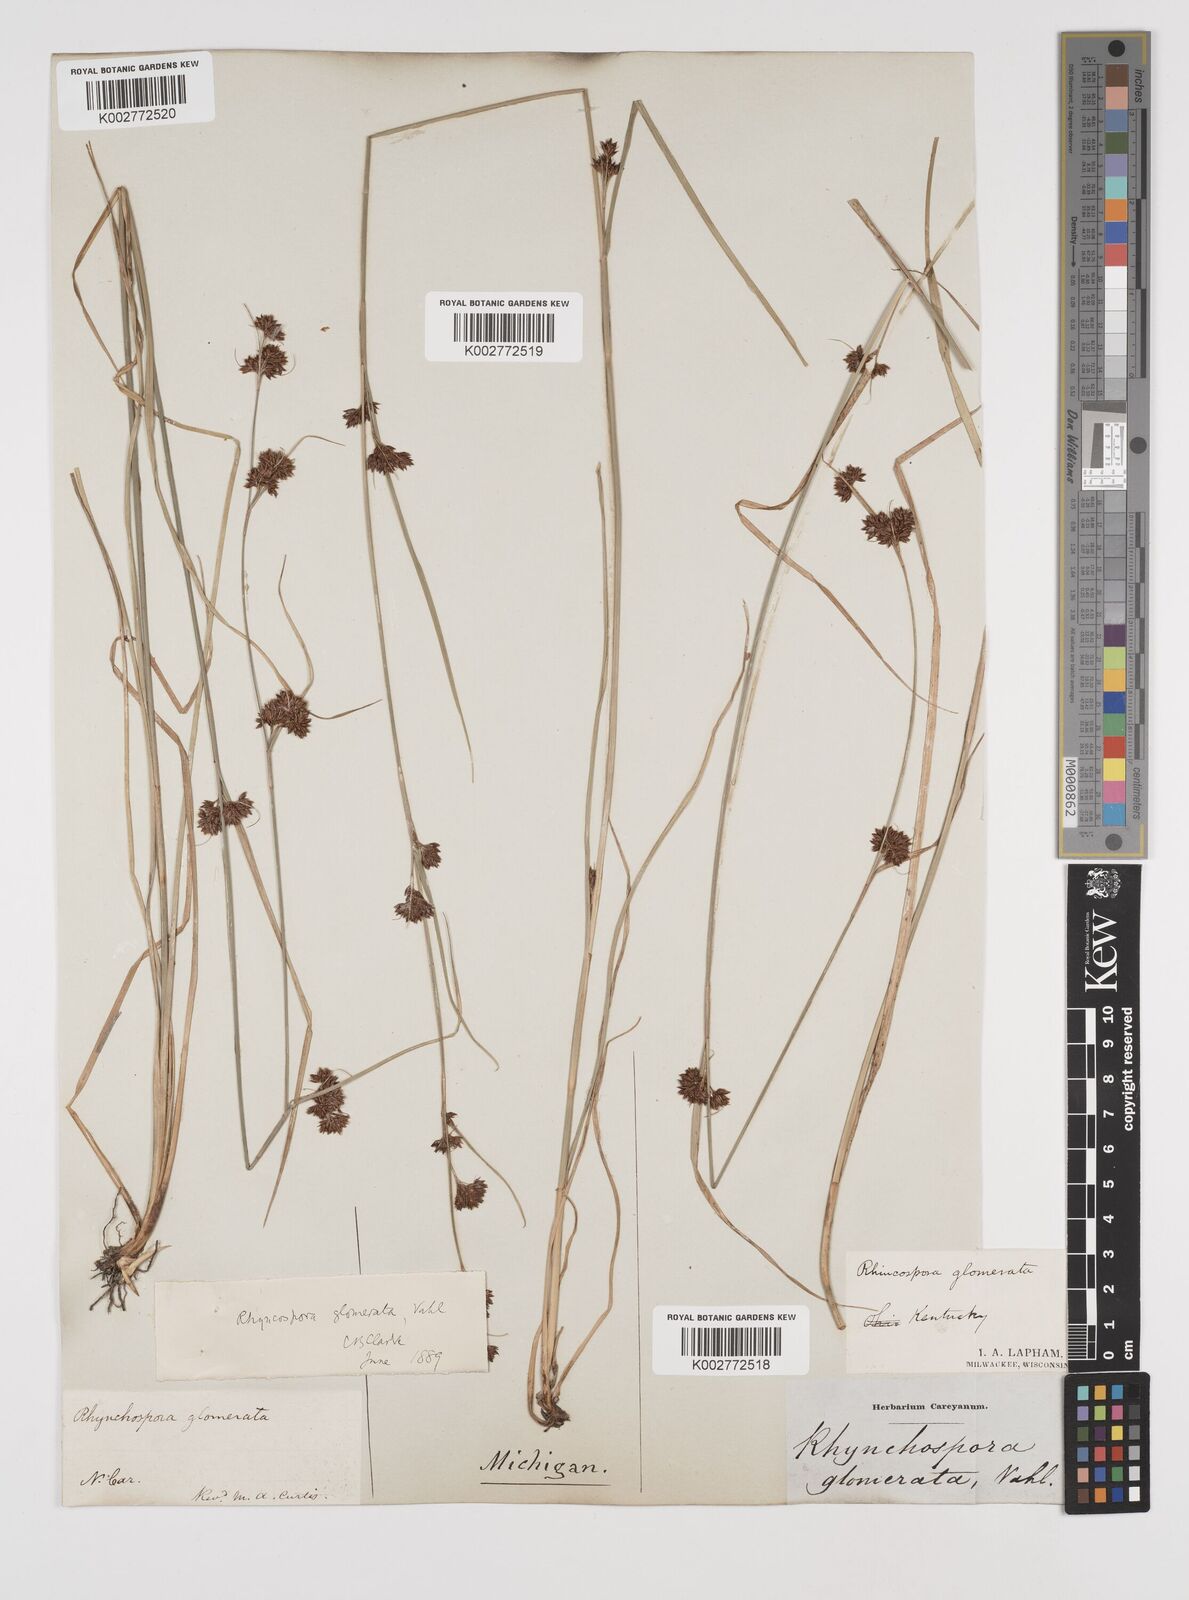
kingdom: Plantae
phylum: Tracheophyta
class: Liliopsida
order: Poales
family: Cyperaceae
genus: Rhynchospora
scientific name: Rhynchospora glomerata
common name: Cluster beak sedge
